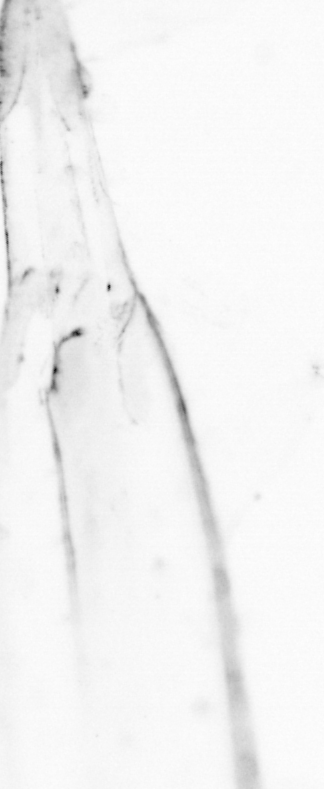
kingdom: Animalia
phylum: Chordata
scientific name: Chordata
